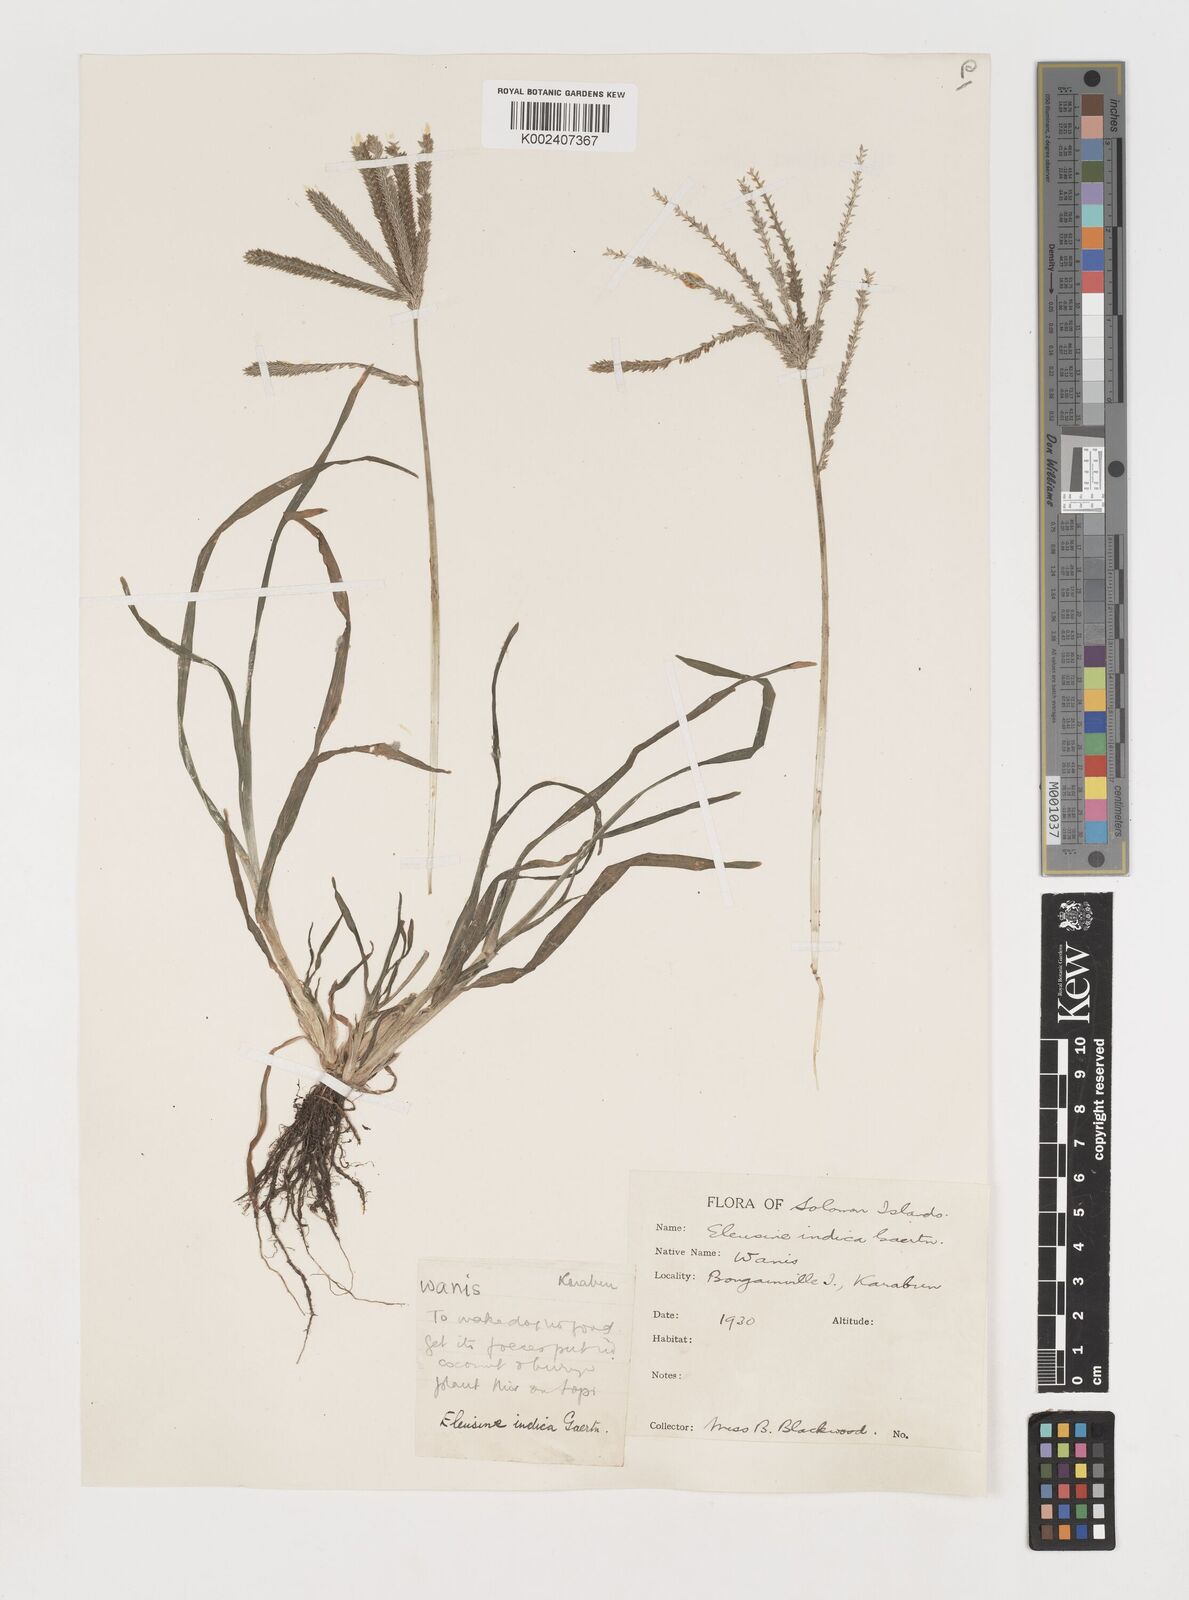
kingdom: Plantae
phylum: Tracheophyta
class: Liliopsida
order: Poales
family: Poaceae
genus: Eleusine
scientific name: Eleusine indica
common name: Yard-grass
